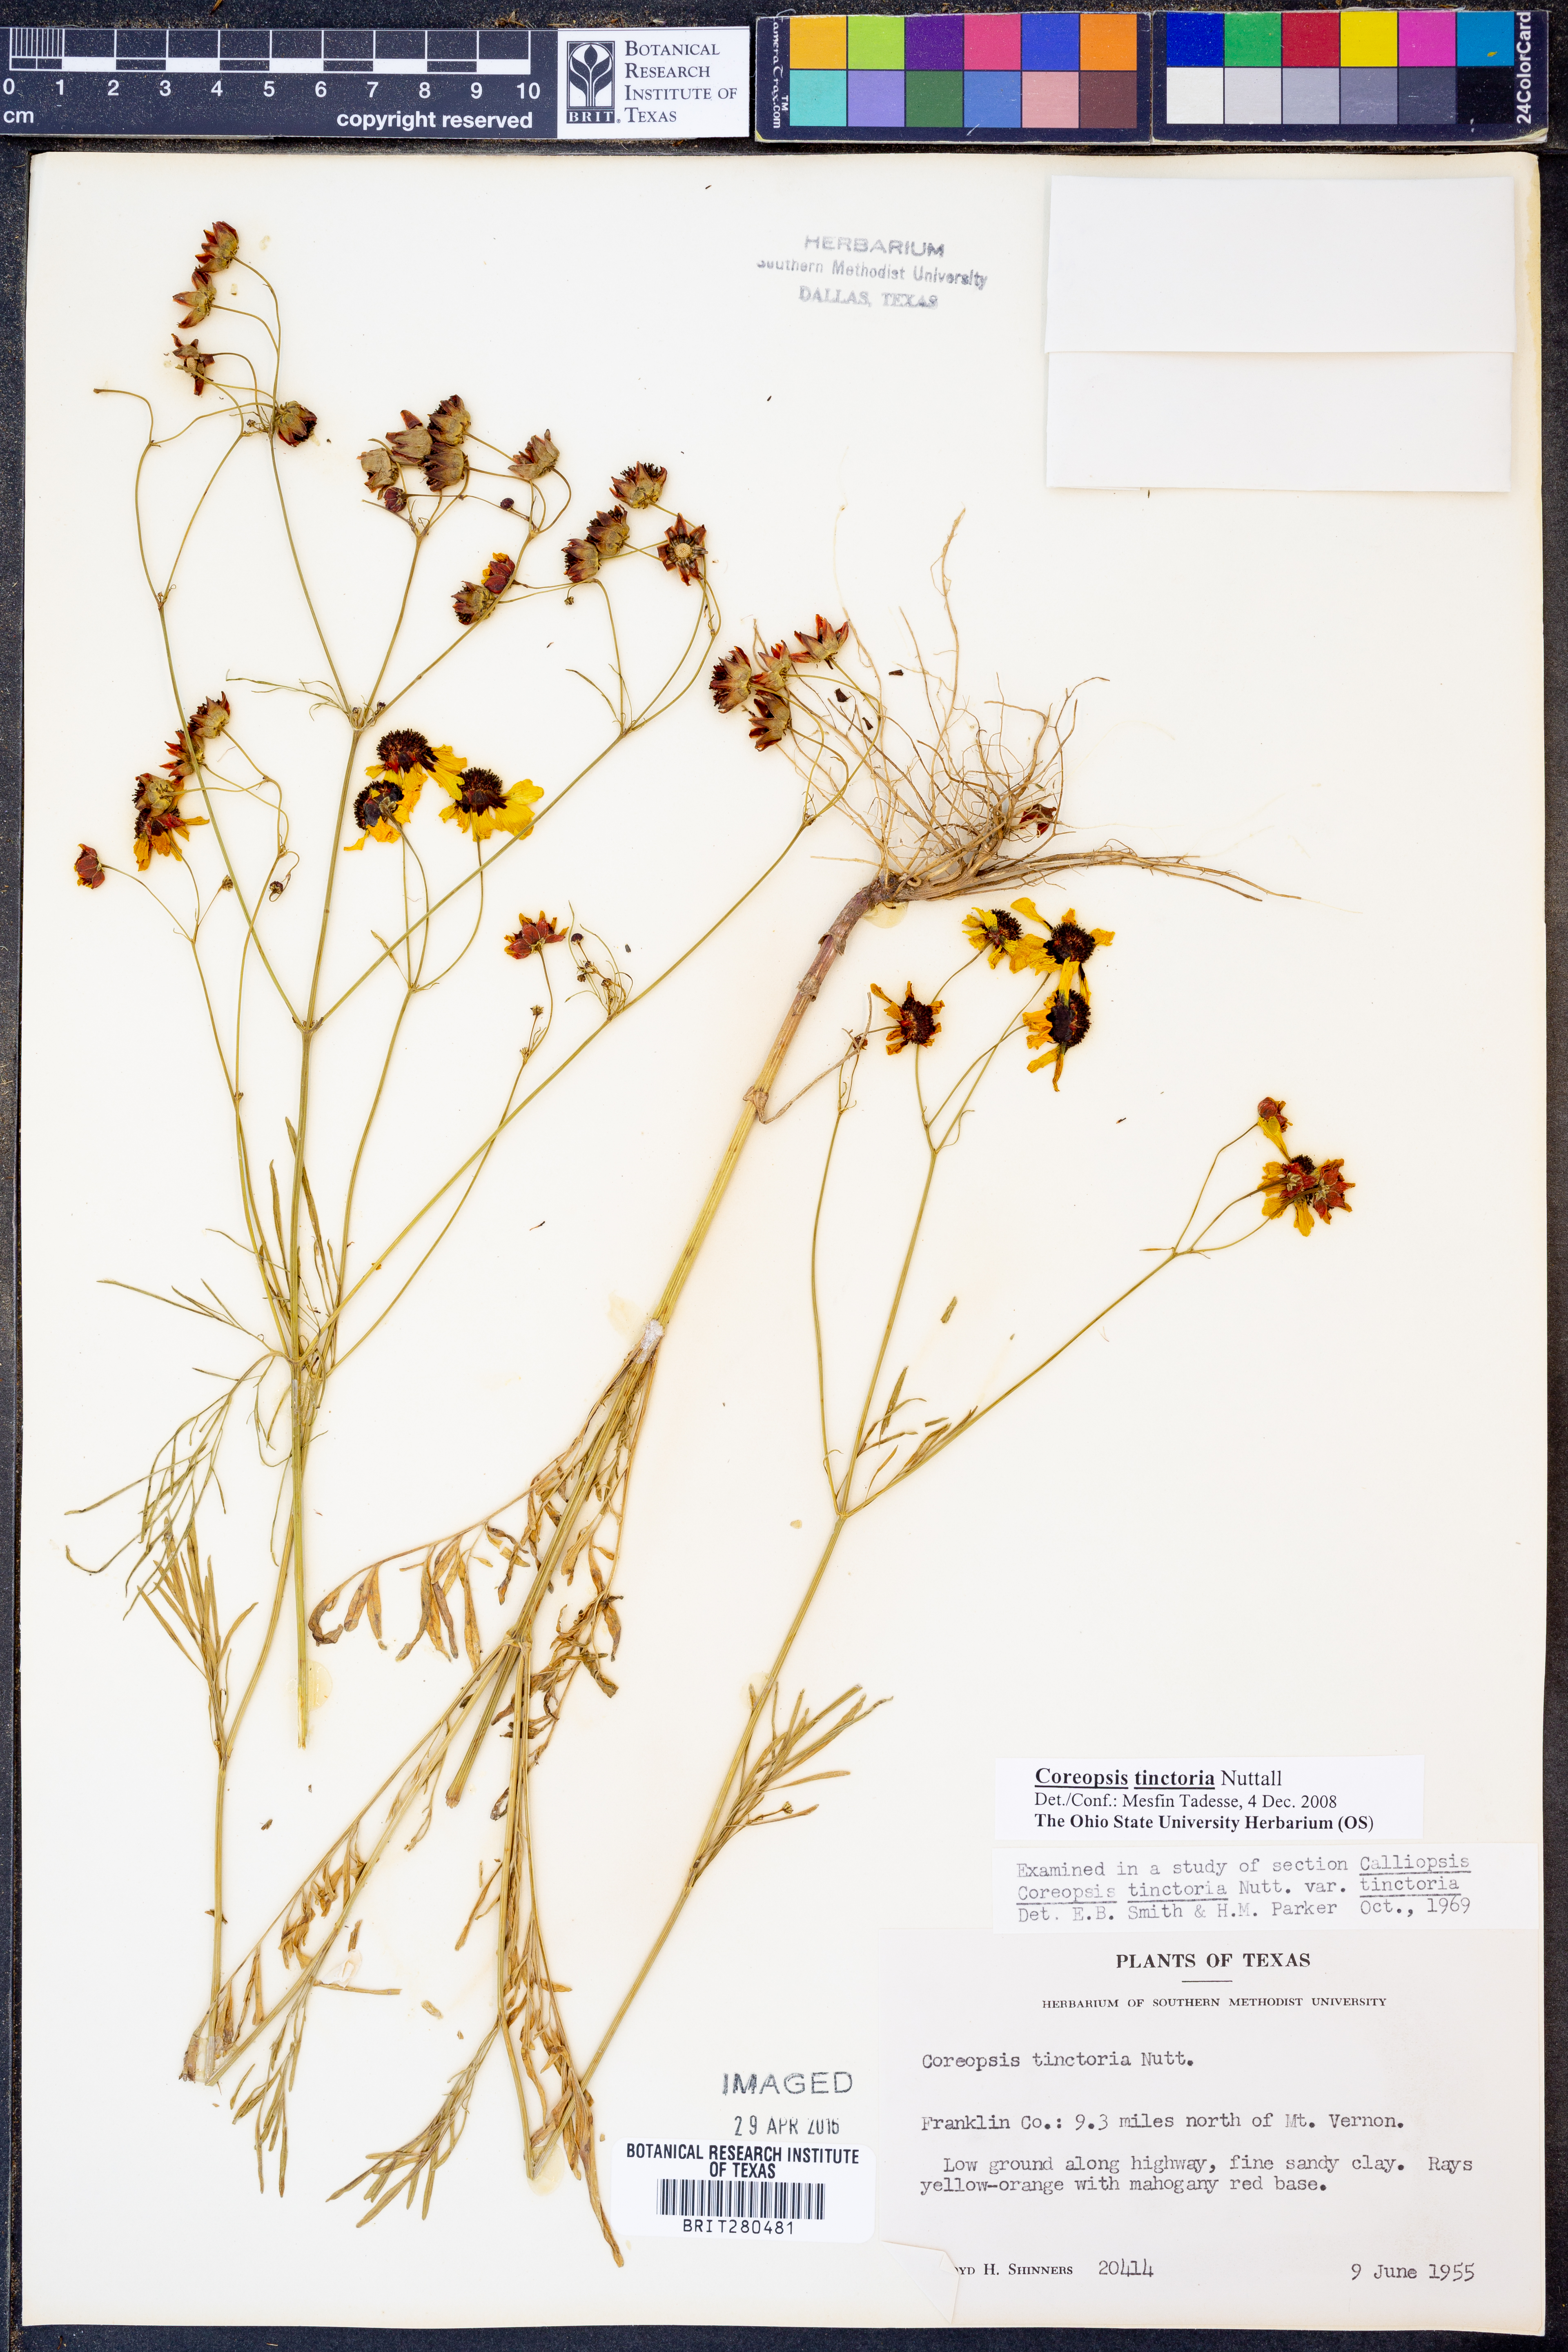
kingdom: Plantae
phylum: Tracheophyta
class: Magnoliopsida
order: Asterales
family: Asteraceae
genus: Coreopsis
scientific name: Coreopsis tinctoria
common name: Garden tickseed
